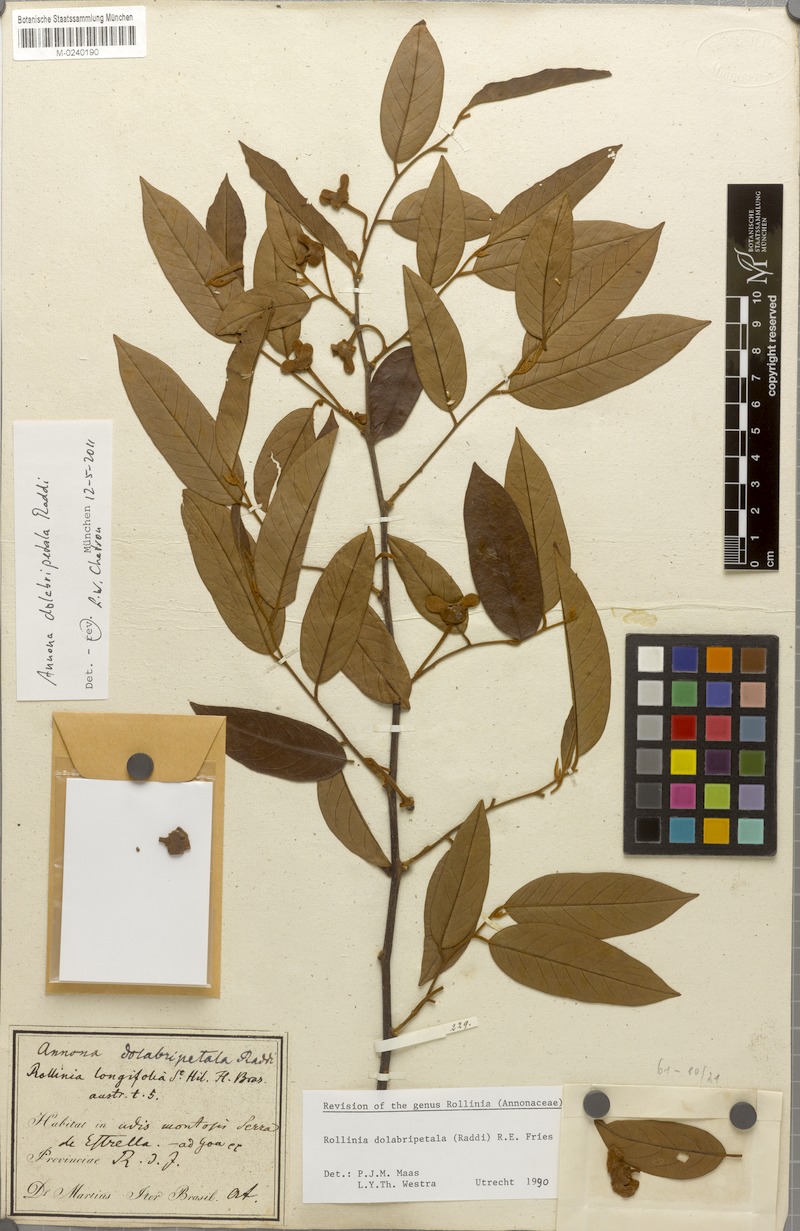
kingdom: Plantae
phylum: Tracheophyta
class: Magnoliopsida
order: Magnoliales
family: Annonaceae
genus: Annona
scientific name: Annona dolabripetala
